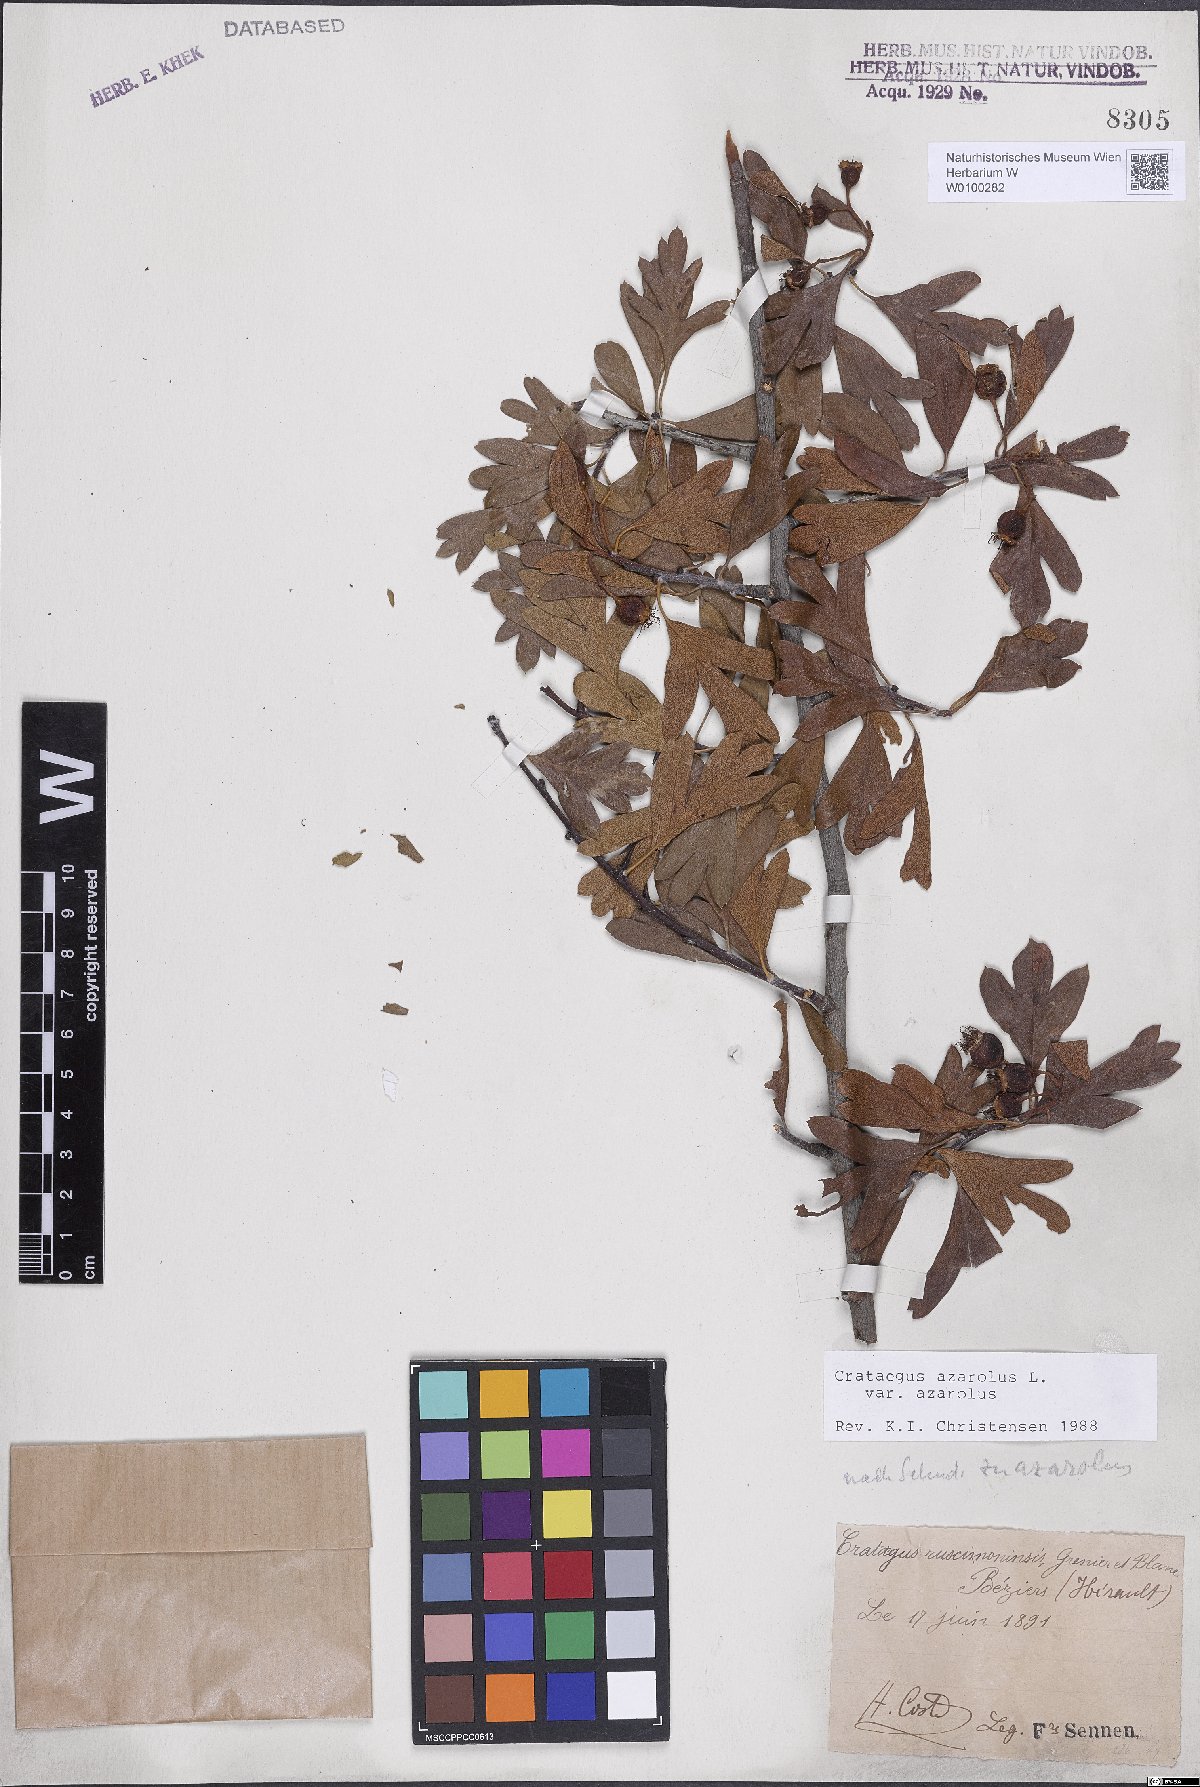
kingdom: Plantae
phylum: Tracheophyta
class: Magnoliopsida
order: Rosales
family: Rosaceae
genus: Crataegus
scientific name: Crataegus azarolus
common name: Azarole
